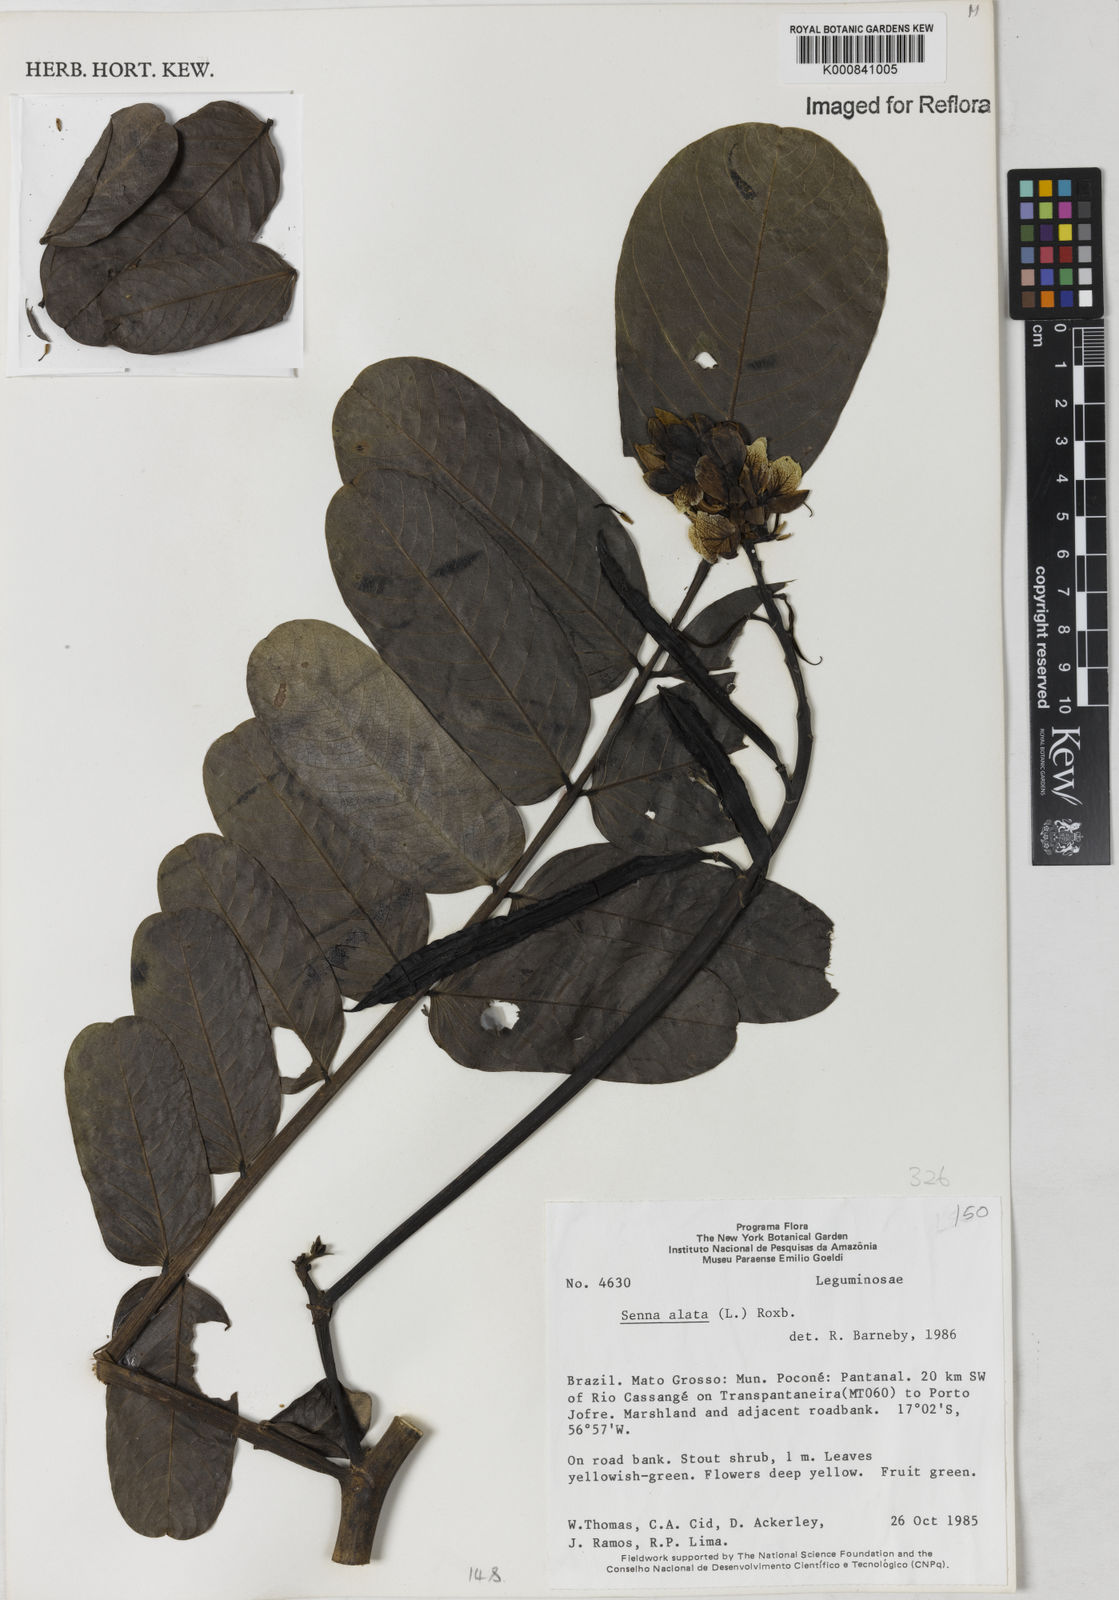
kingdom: Plantae
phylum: Tracheophyta
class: Magnoliopsida
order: Fabales
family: Fabaceae
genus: Senna
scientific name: Senna alata
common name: Emperor's candlesticks
